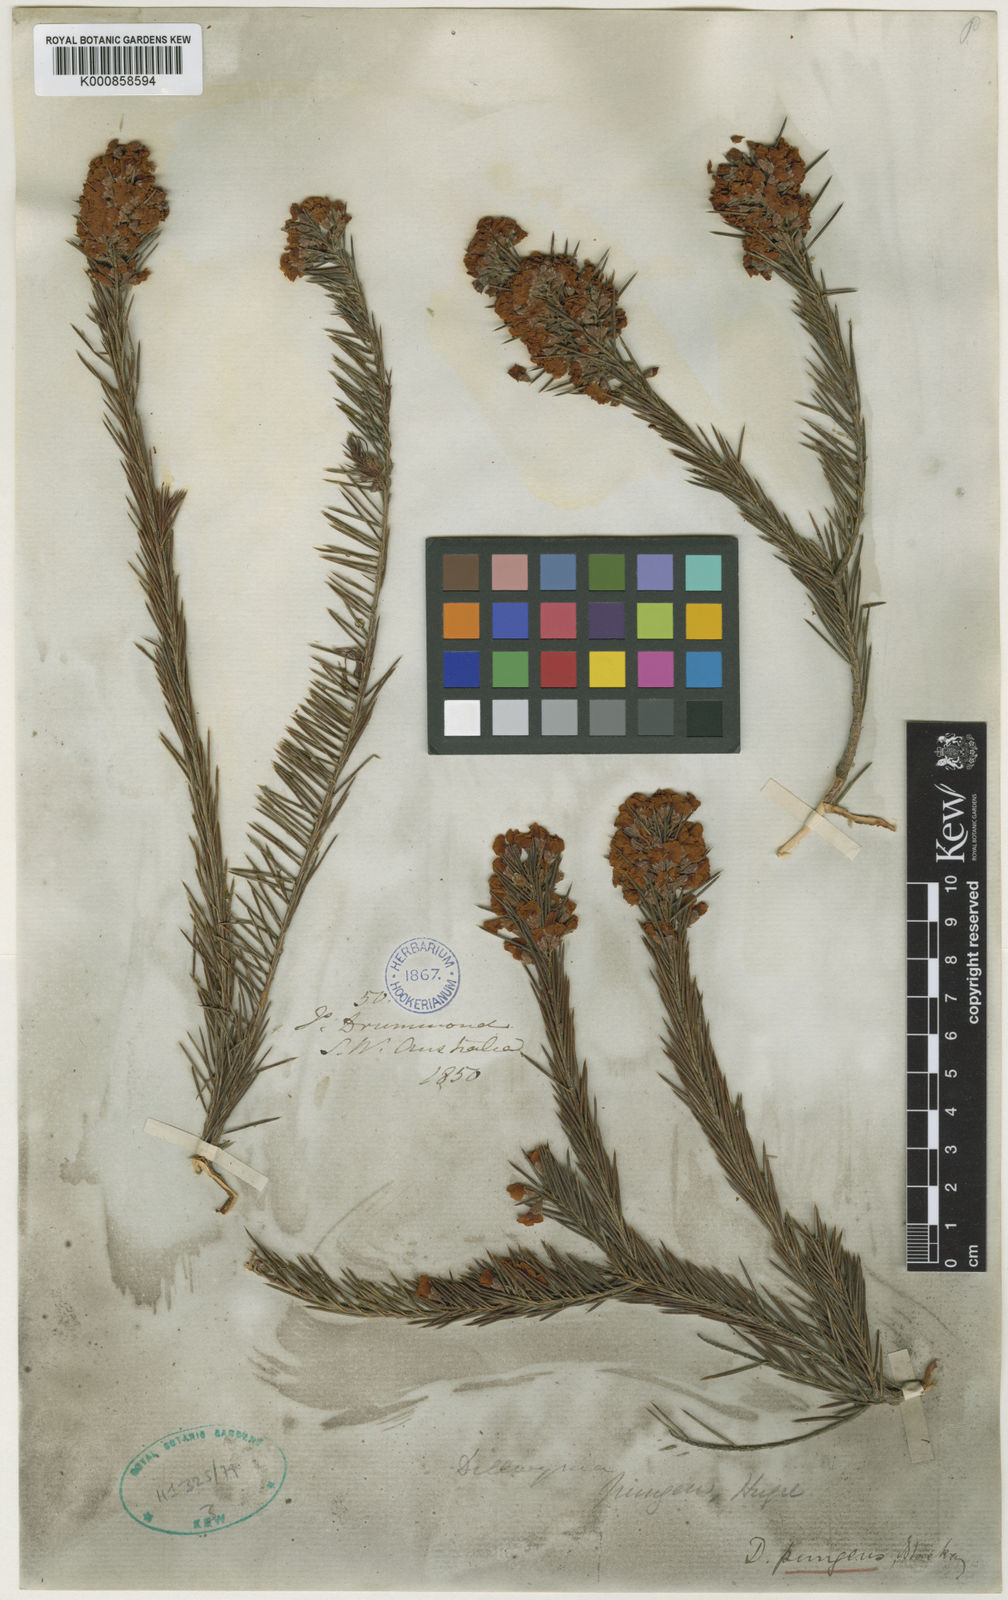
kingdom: Plantae
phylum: Tracheophyta
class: Magnoliopsida
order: Fabales
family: Fabaceae
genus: Dillwynia
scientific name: Dillwynia
